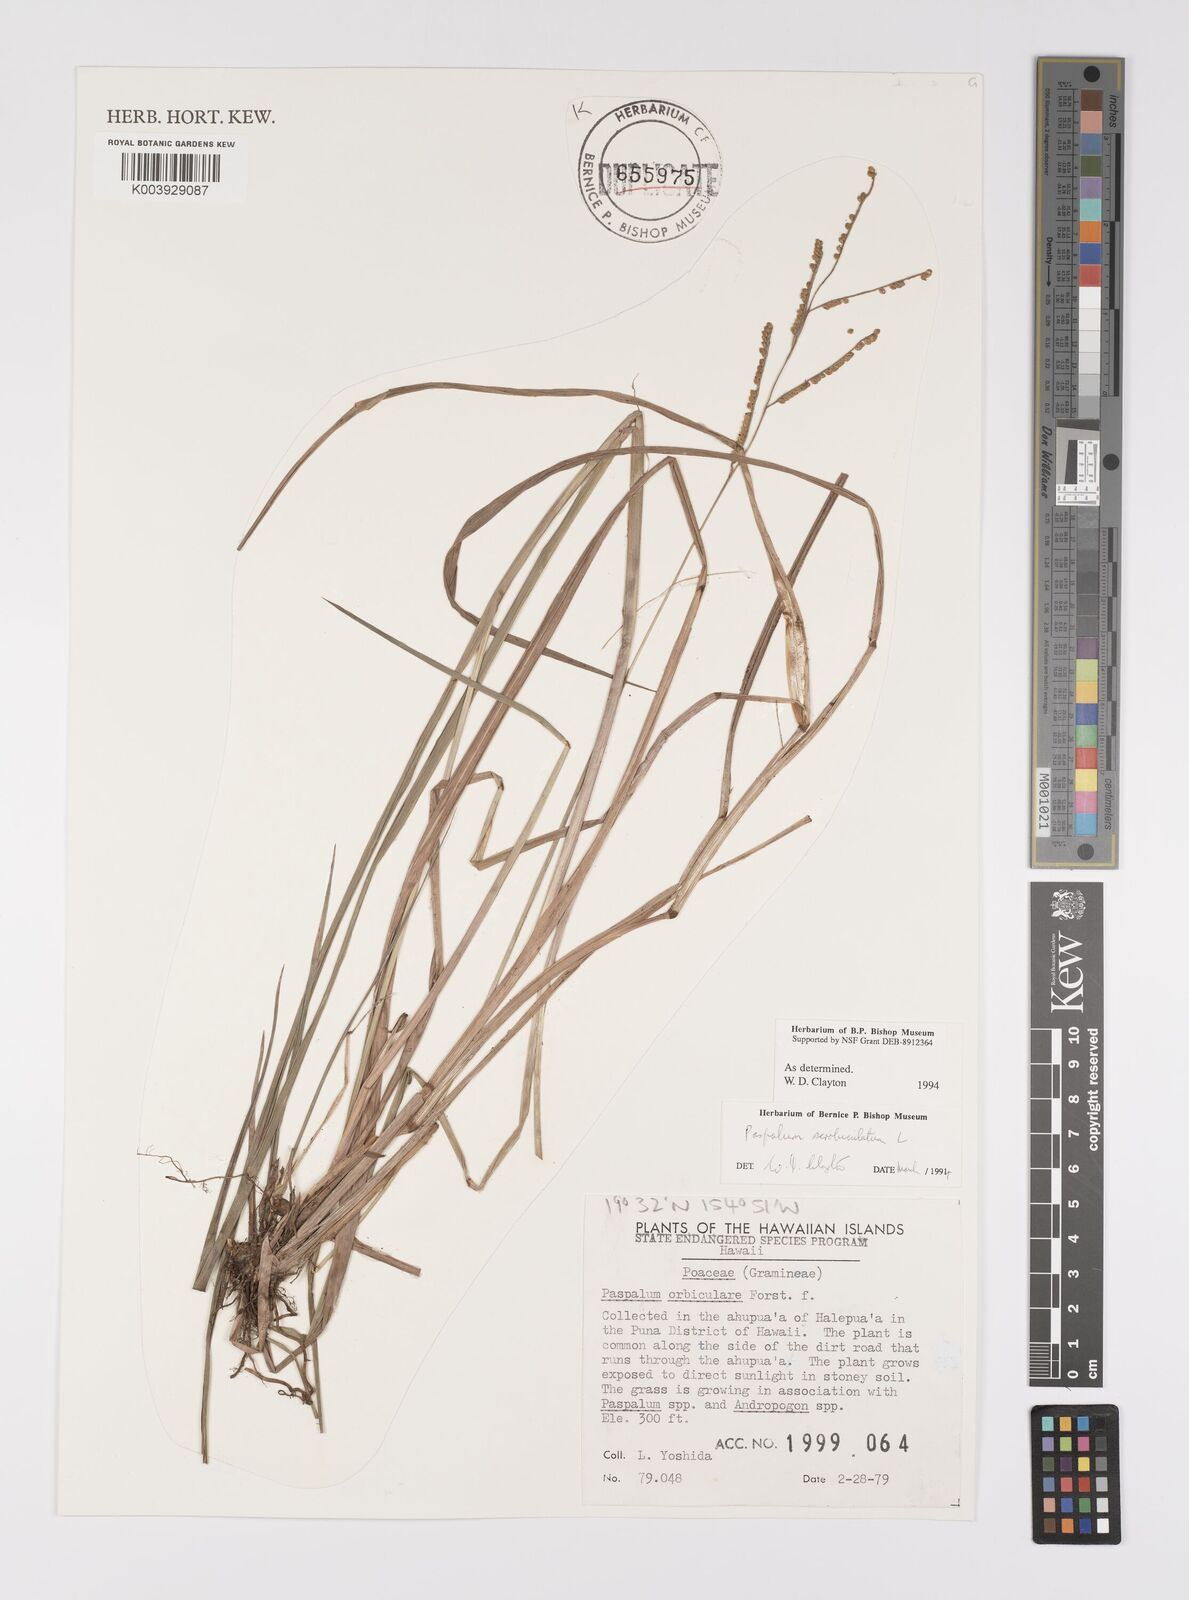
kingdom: Plantae
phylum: Tracheophyta
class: Liliopsida
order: Poales
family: Poaceae
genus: Paspalum
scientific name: Paspalum scrobiculatum
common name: Kodo millet
